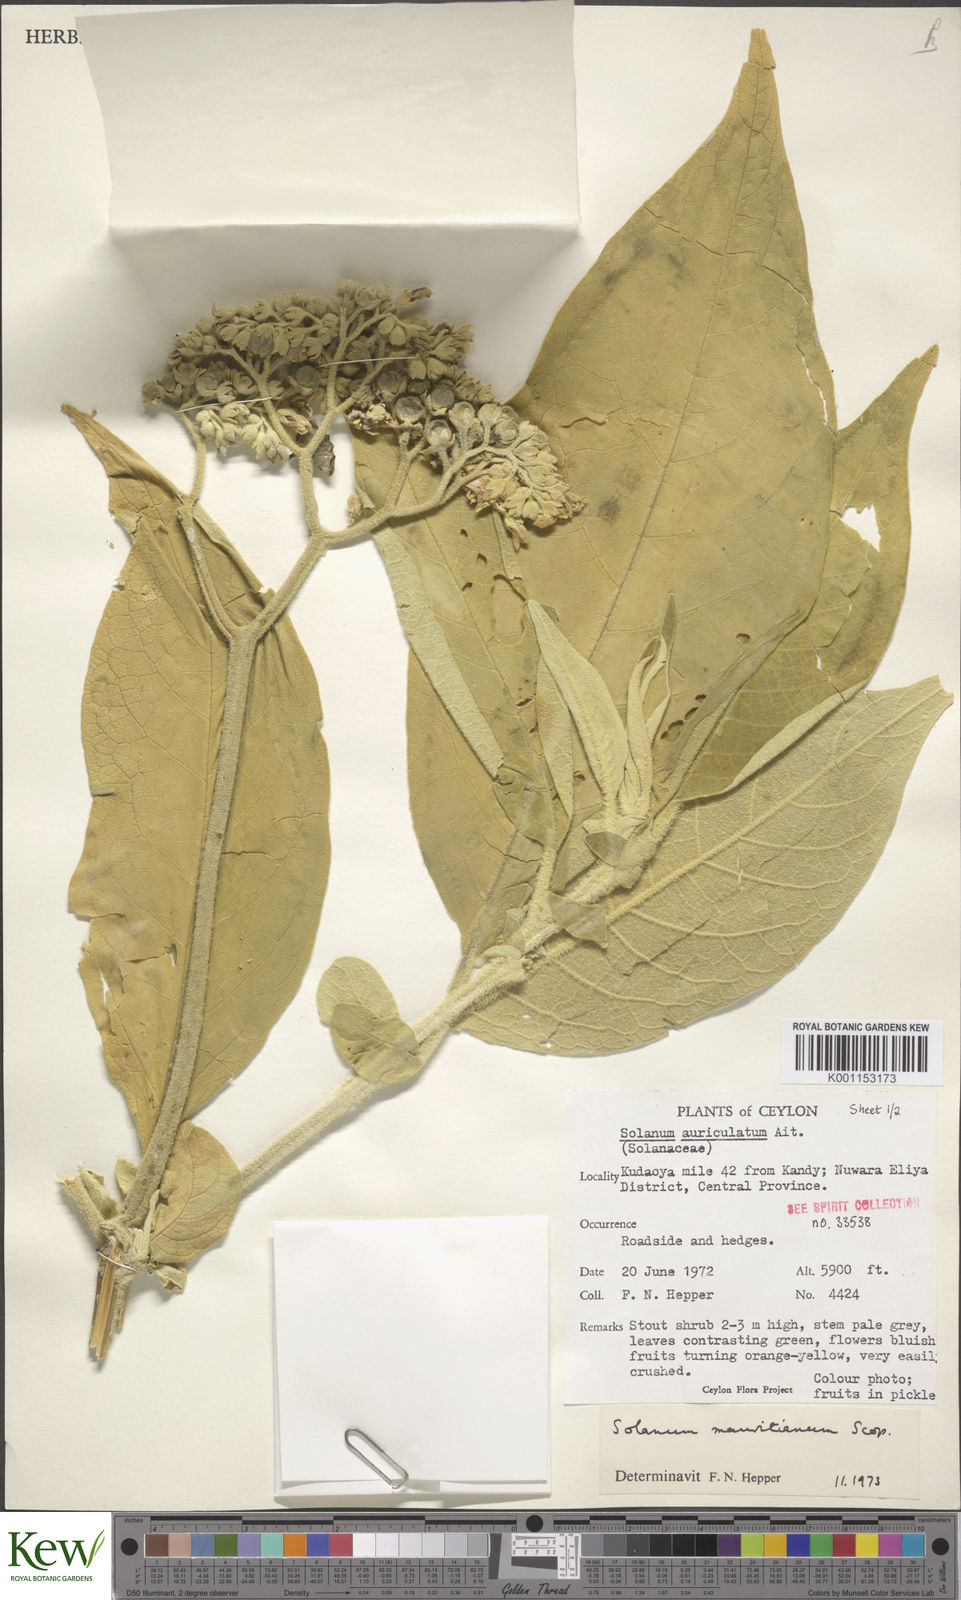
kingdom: Plantae
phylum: Tracheophyta
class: Magnoliopsida
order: Solanales
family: Solanaceae
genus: Solanum
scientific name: Solanum mauritianum
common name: Earleaf nightshade
